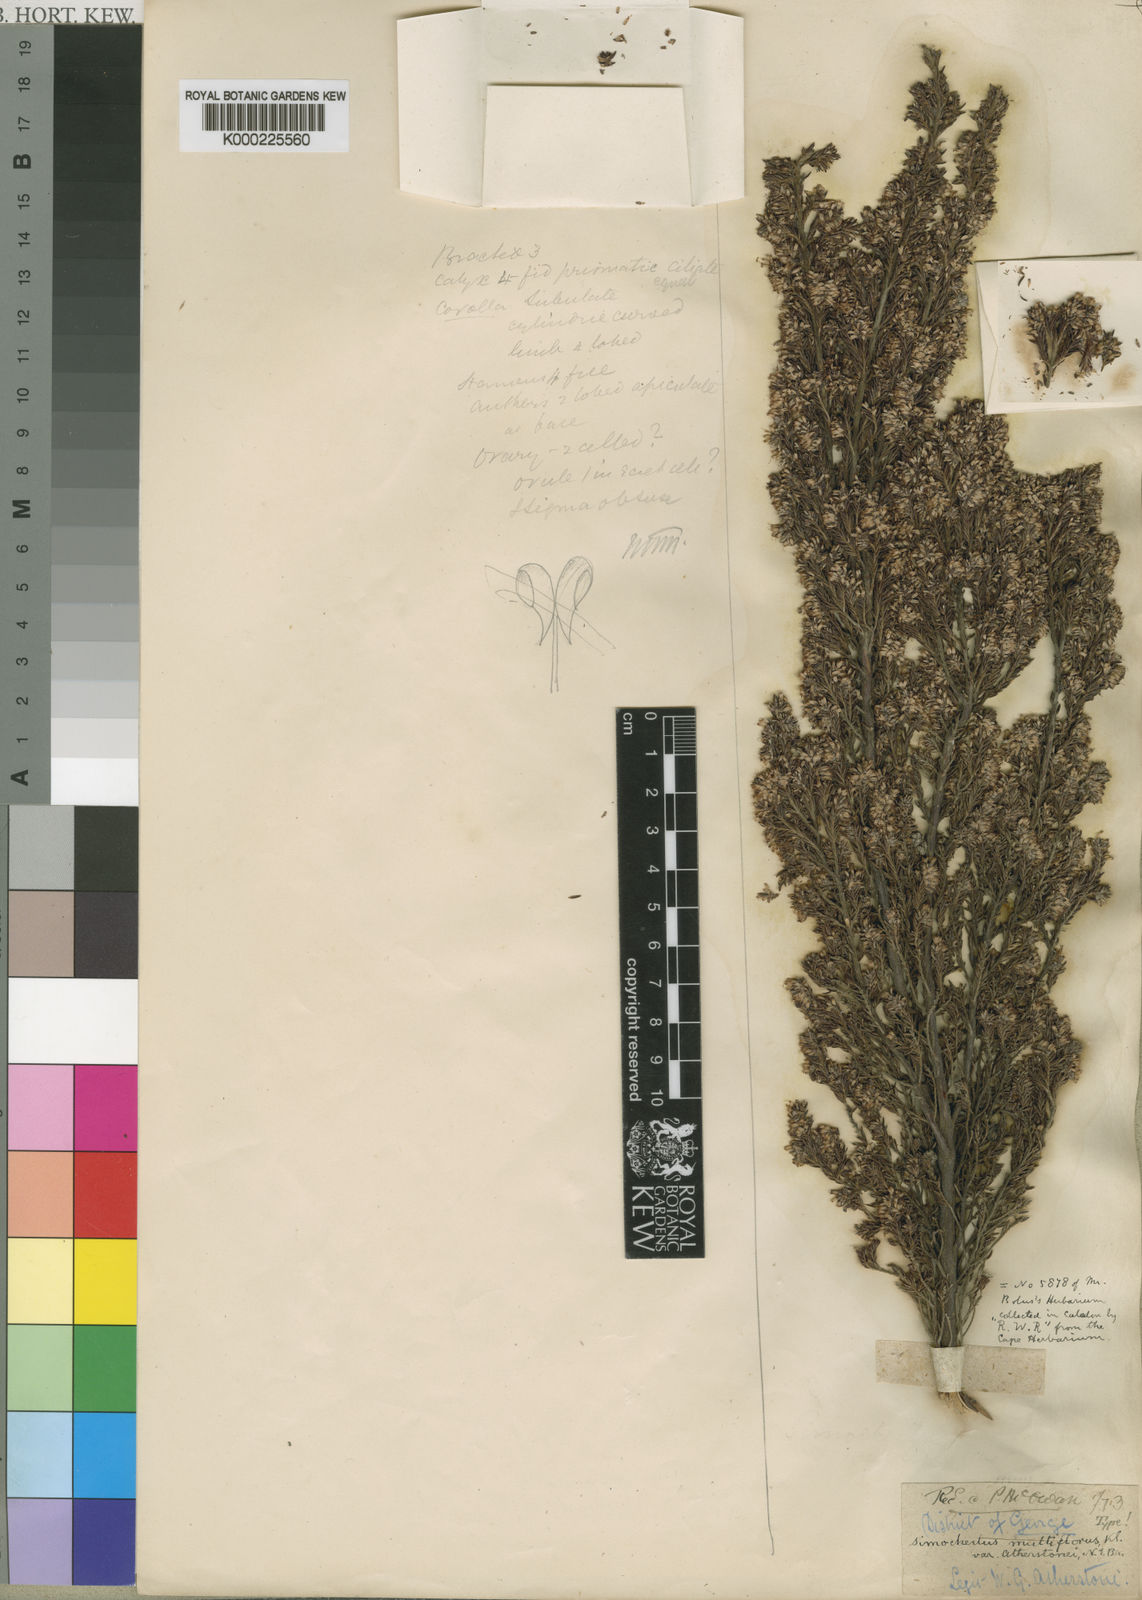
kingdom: Plantae
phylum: Tracheophyta
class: Magnoliopsida
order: Ericales
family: Ericaceae
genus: Erica
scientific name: Erica uberiflora
